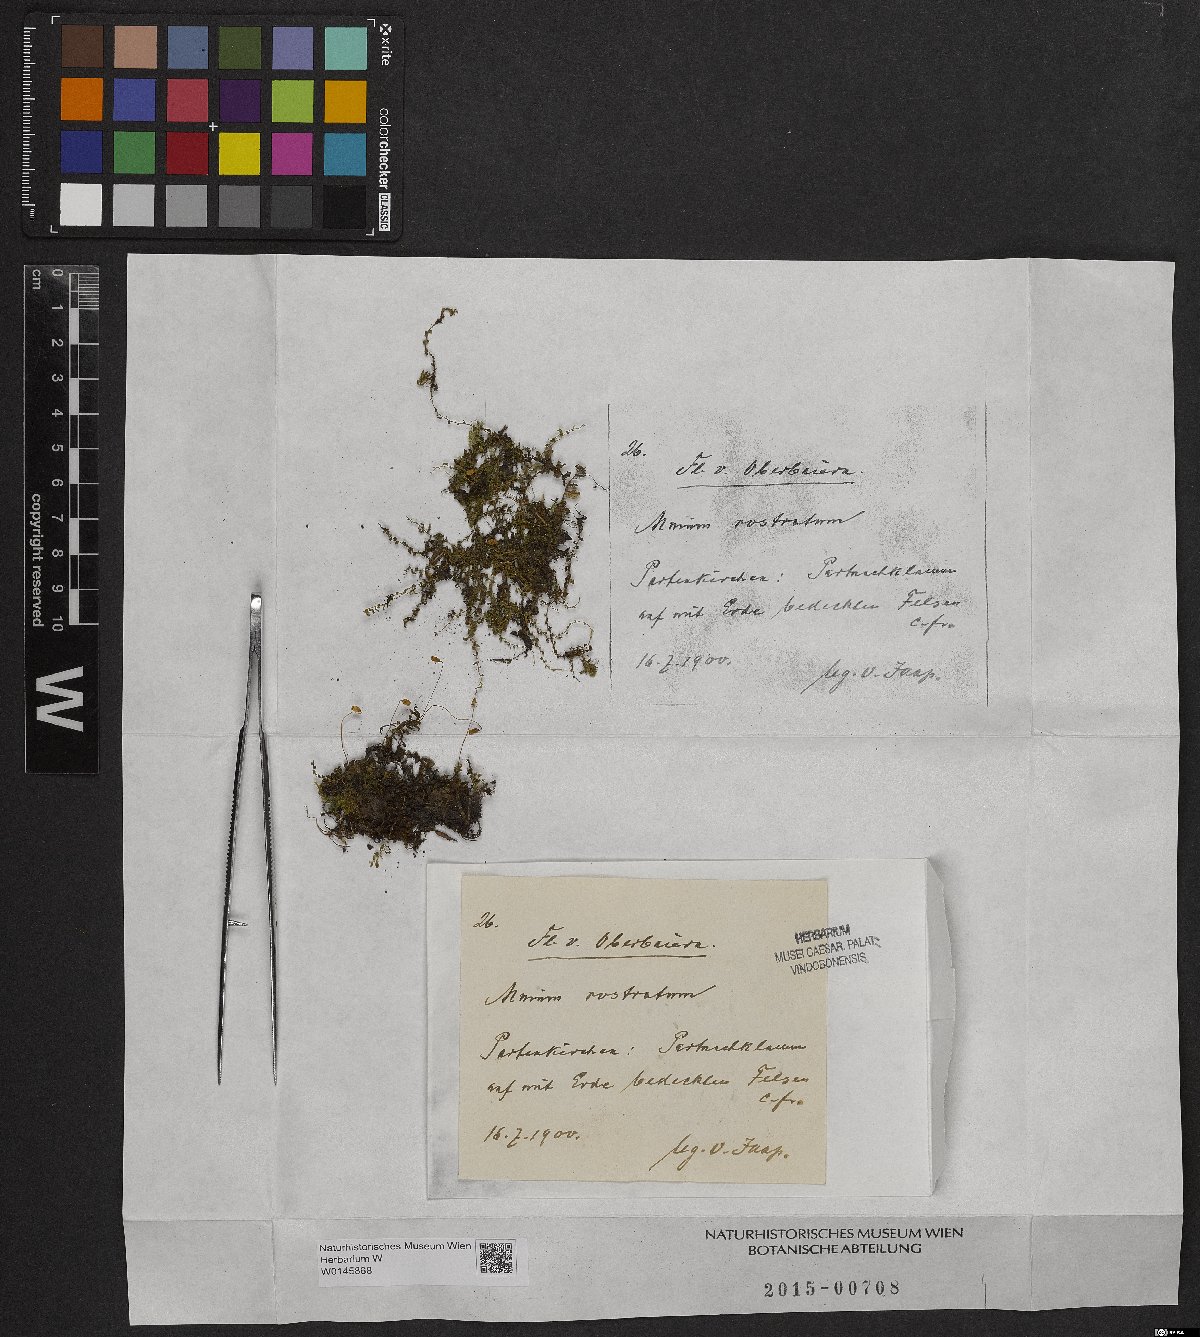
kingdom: Plantae
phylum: Bryophyta
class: Bryopsida
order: Bryales
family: Mniaceae
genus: Plagiomnium
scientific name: Plagiomnium rostratum
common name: Long-beaked leafy moss
